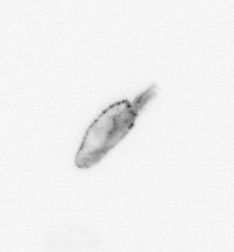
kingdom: Animalia
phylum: Arthropoda
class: Maxillopoda
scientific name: Maxillopoda
